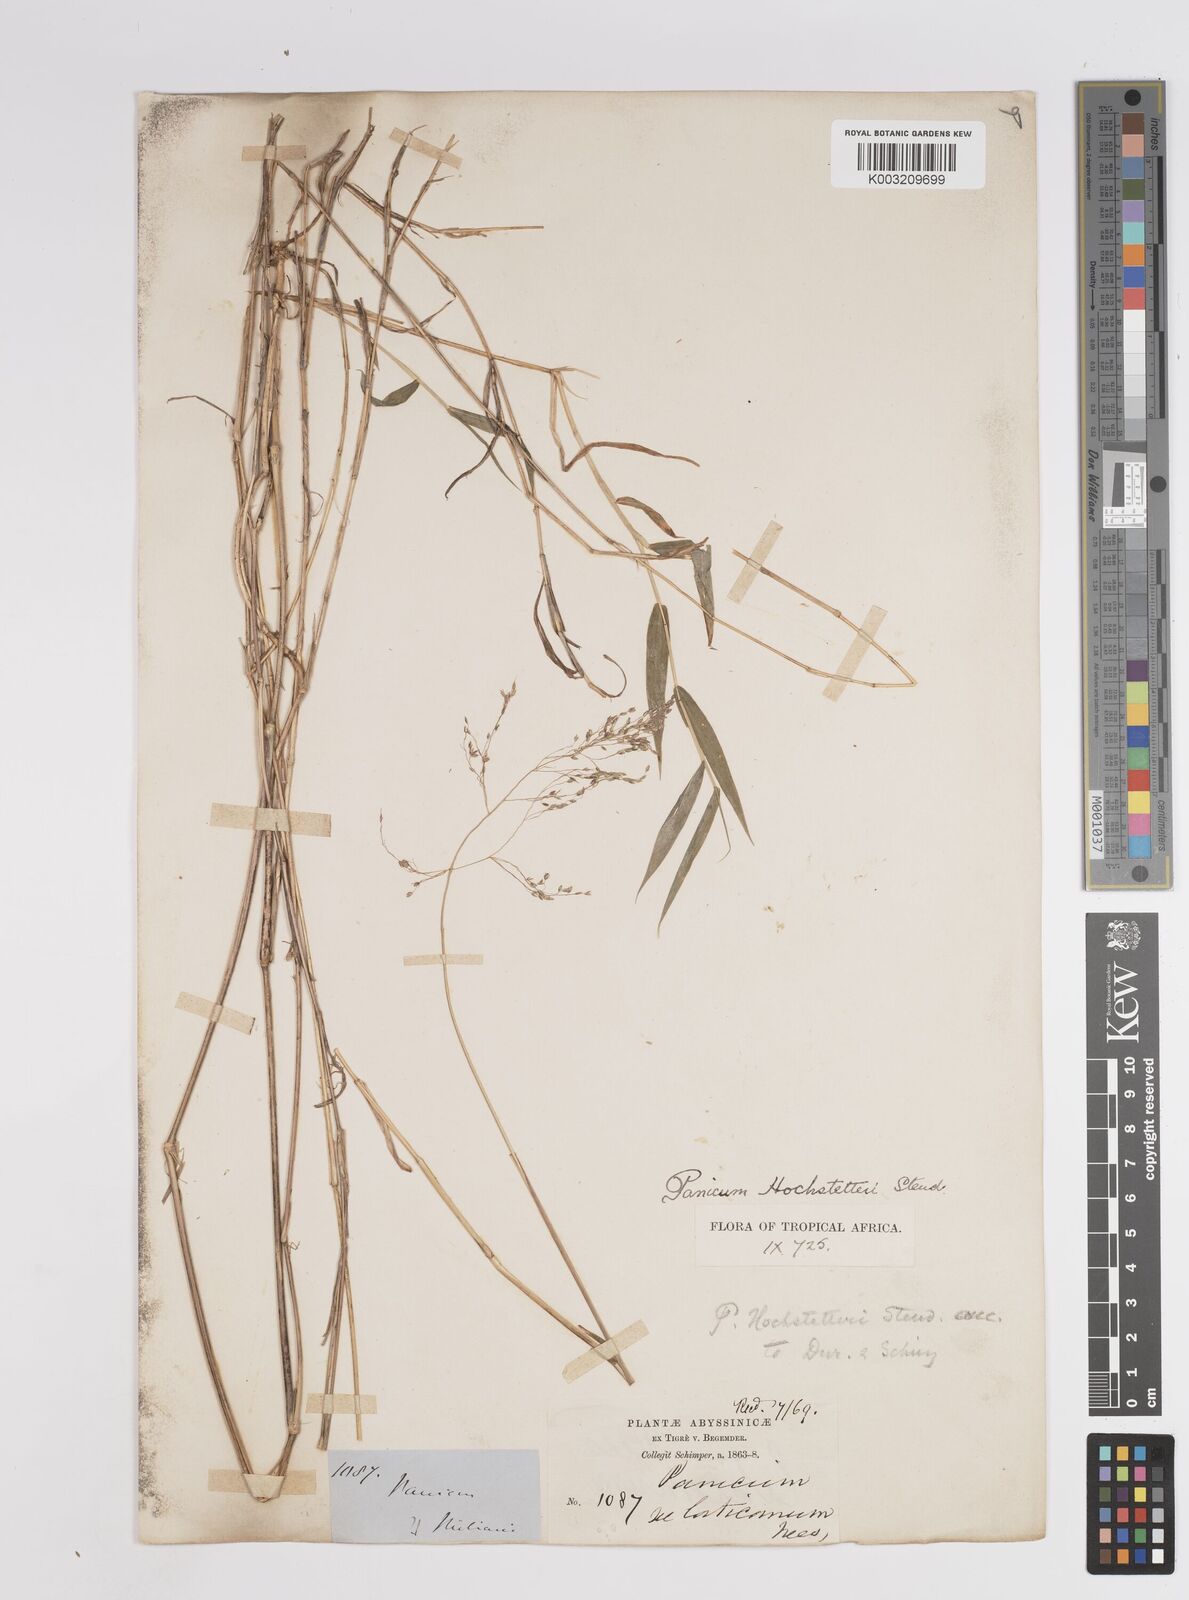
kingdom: Plantae
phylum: Tracheophyta
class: Liliopsida
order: Poales
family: Poaceae
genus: Panicum
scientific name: Panicum hochstetteri
